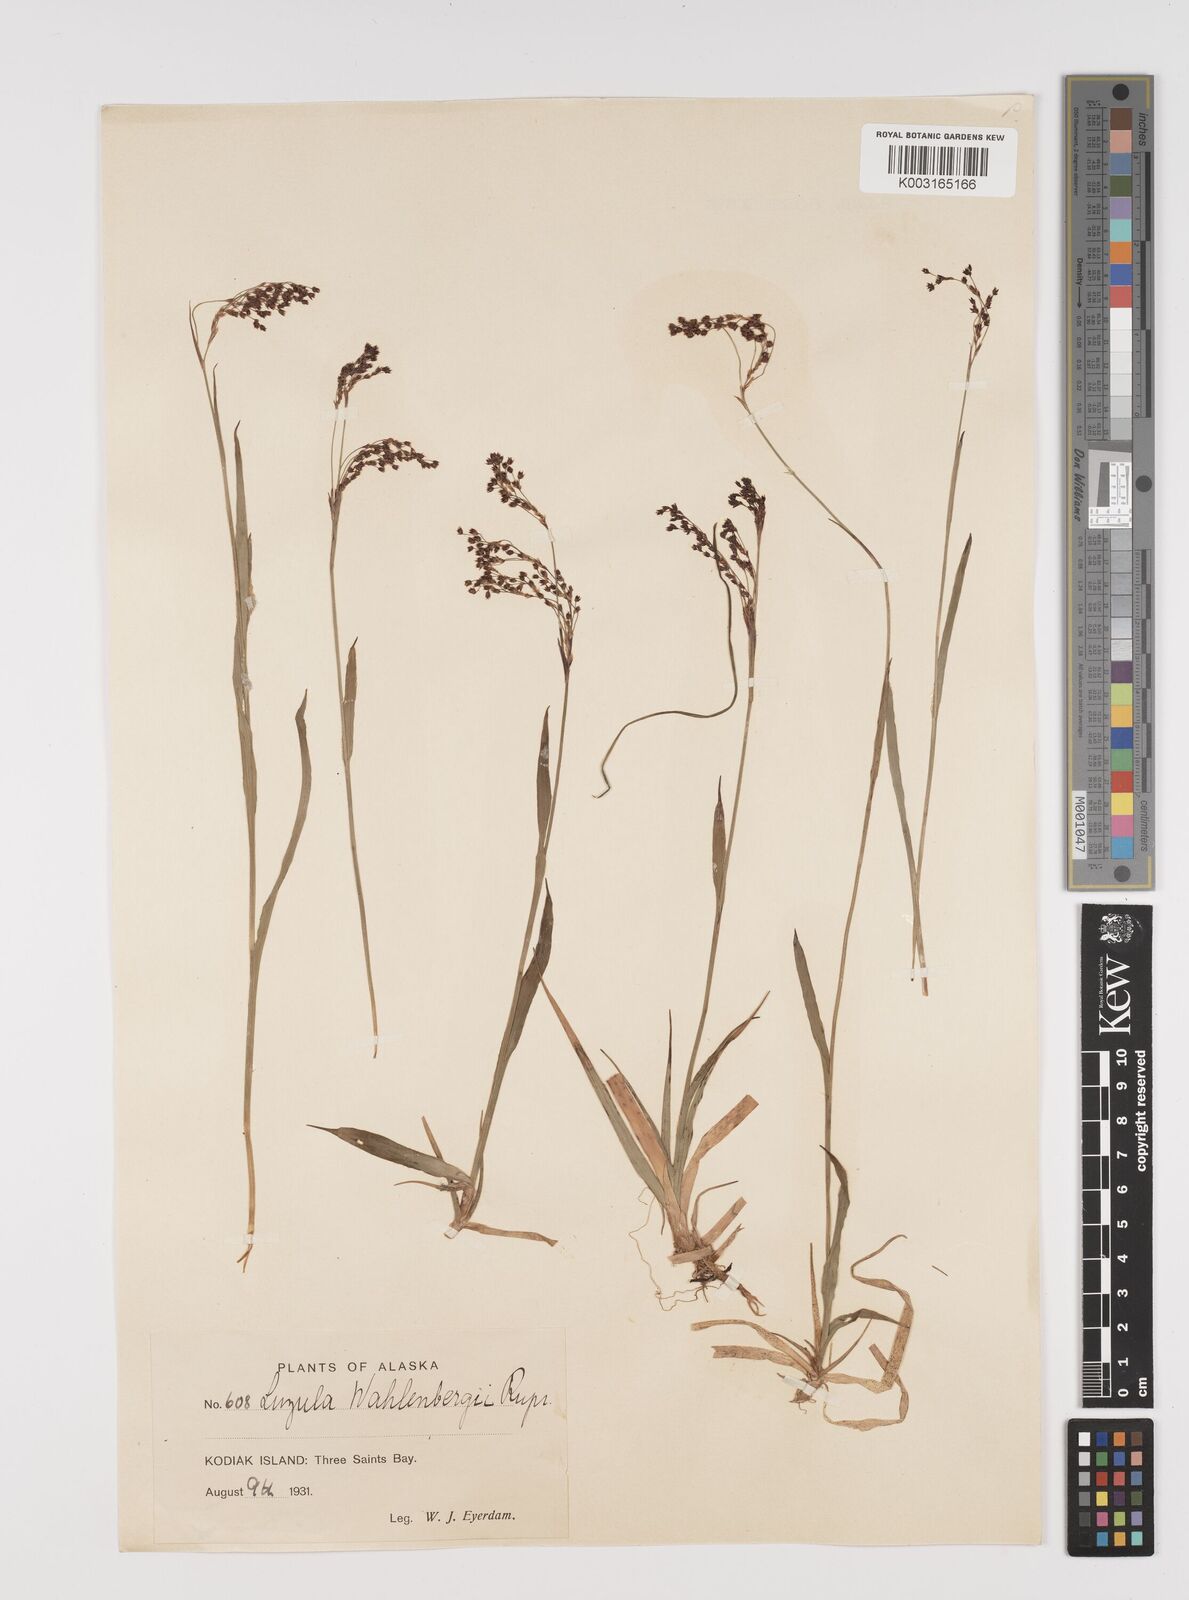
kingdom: Plantae
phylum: Tracheophyta
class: Liliopsida
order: Poales
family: Juncaceae
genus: Luzula
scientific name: Luzula wahlenbergii
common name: Wahlenberg's wood-rush
